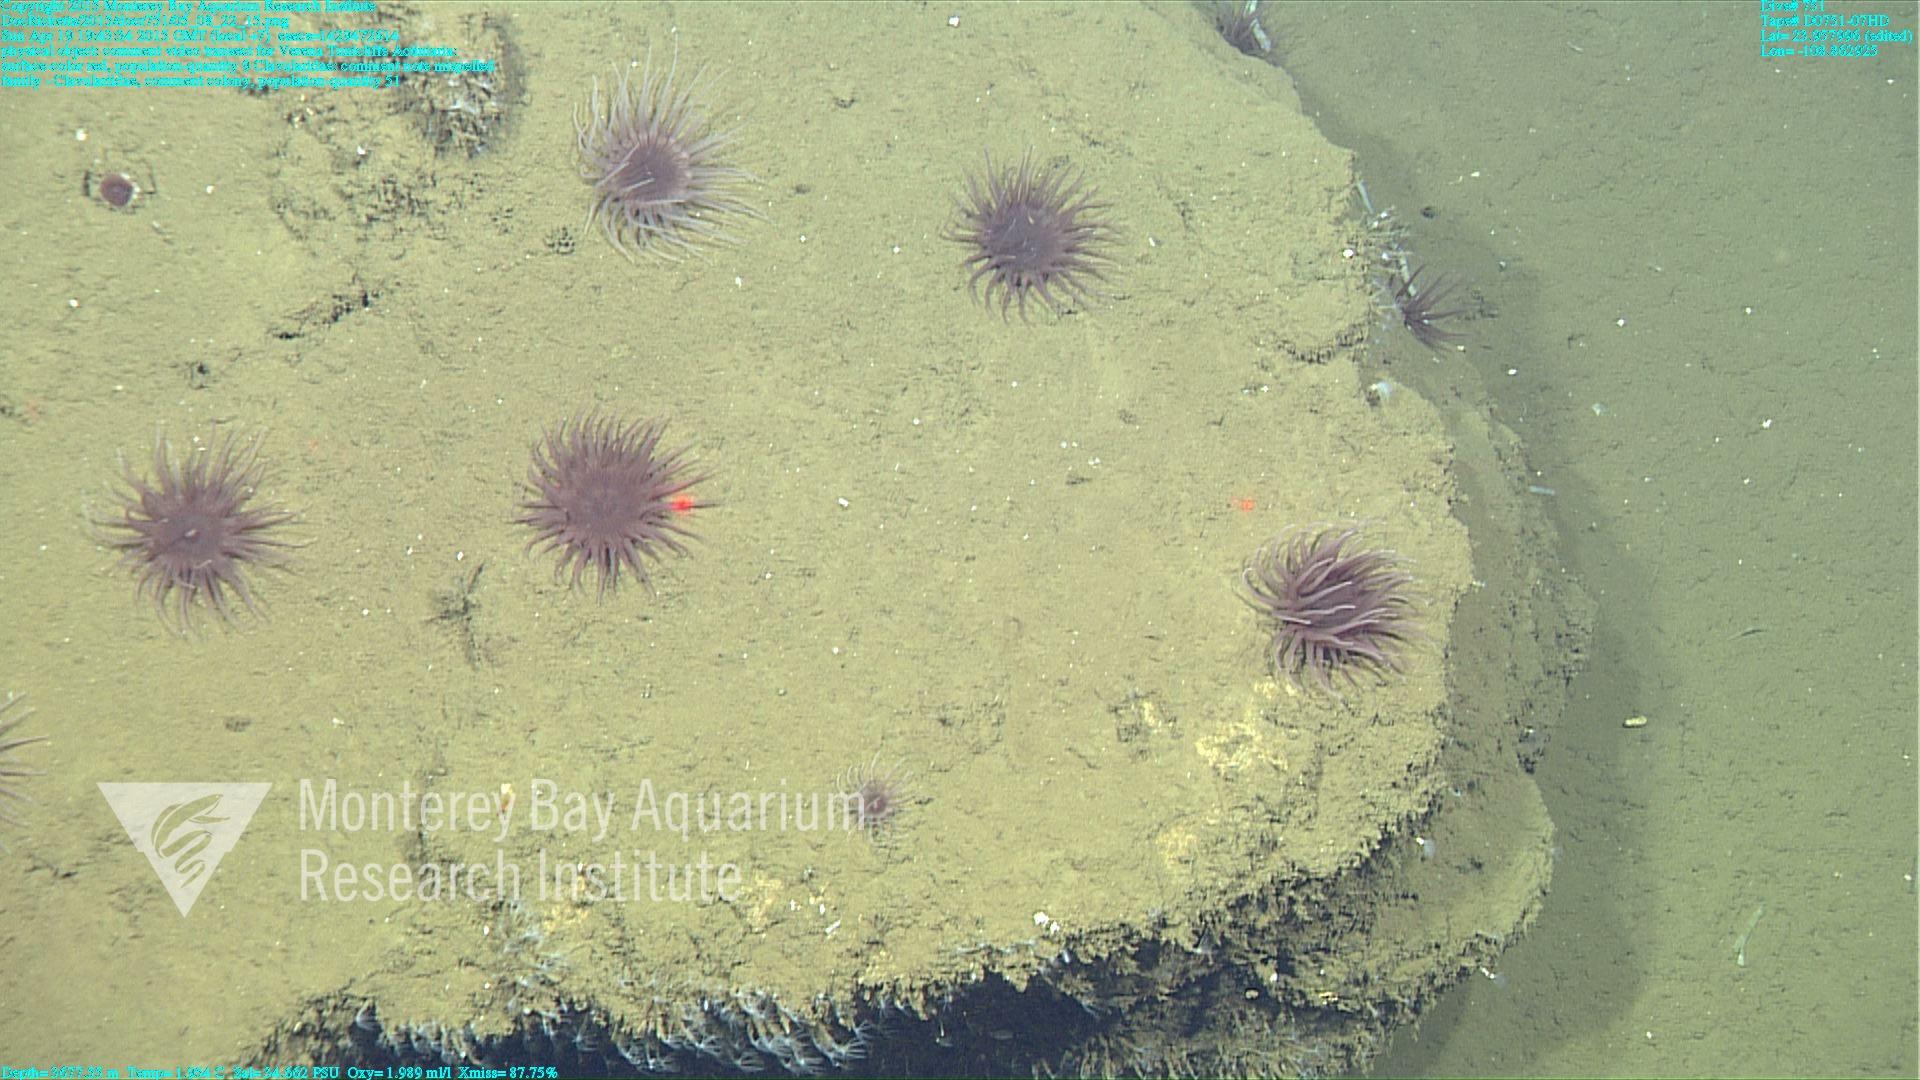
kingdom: Animalia
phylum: Cnidaria
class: Anthozoa
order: Malacalcyonacea
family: Clavulariidae
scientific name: Clavulariidae
